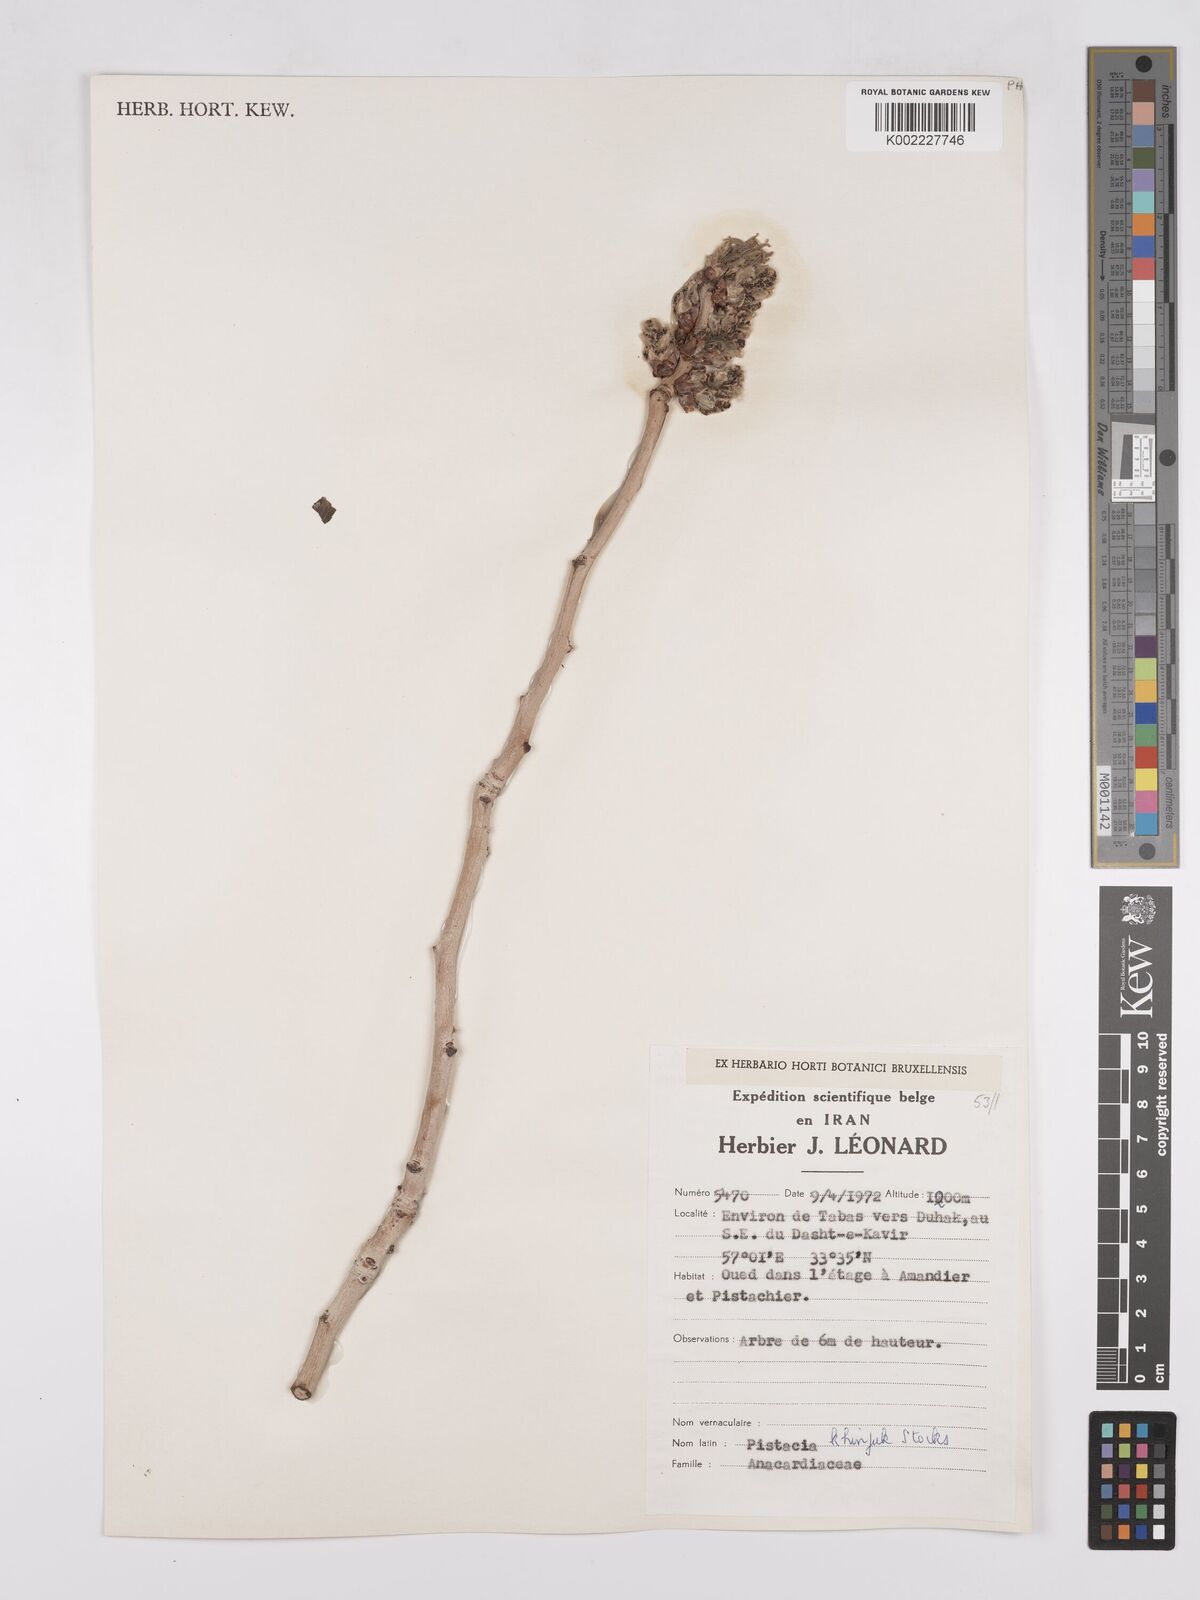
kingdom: Plantae
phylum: Tracheophyta
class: Magnoliopsida
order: Sapindales
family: Anacardiaceae
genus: Pistacia
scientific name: Pistacia khinjuk
